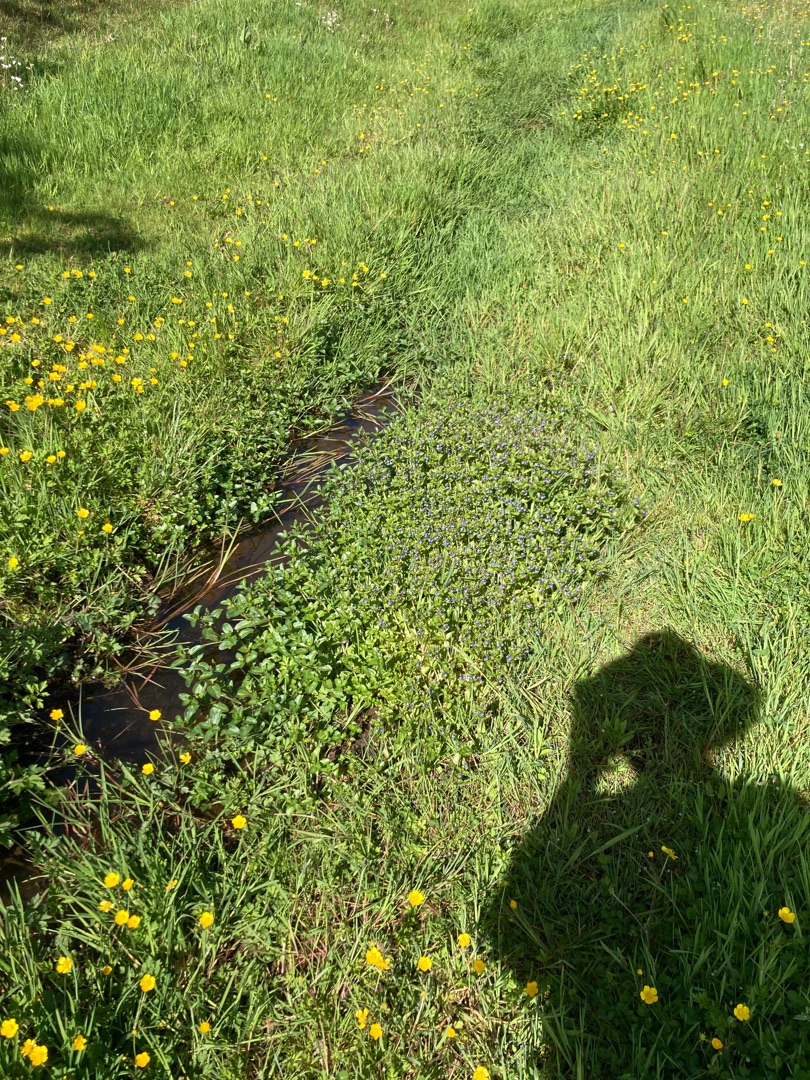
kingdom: Plantae
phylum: Tracheophyta
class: Magnoliopsida
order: Lamiales
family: Plantaginaceae
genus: Veronica
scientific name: Veronica beccabunga
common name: Tykbladet ærenpris
